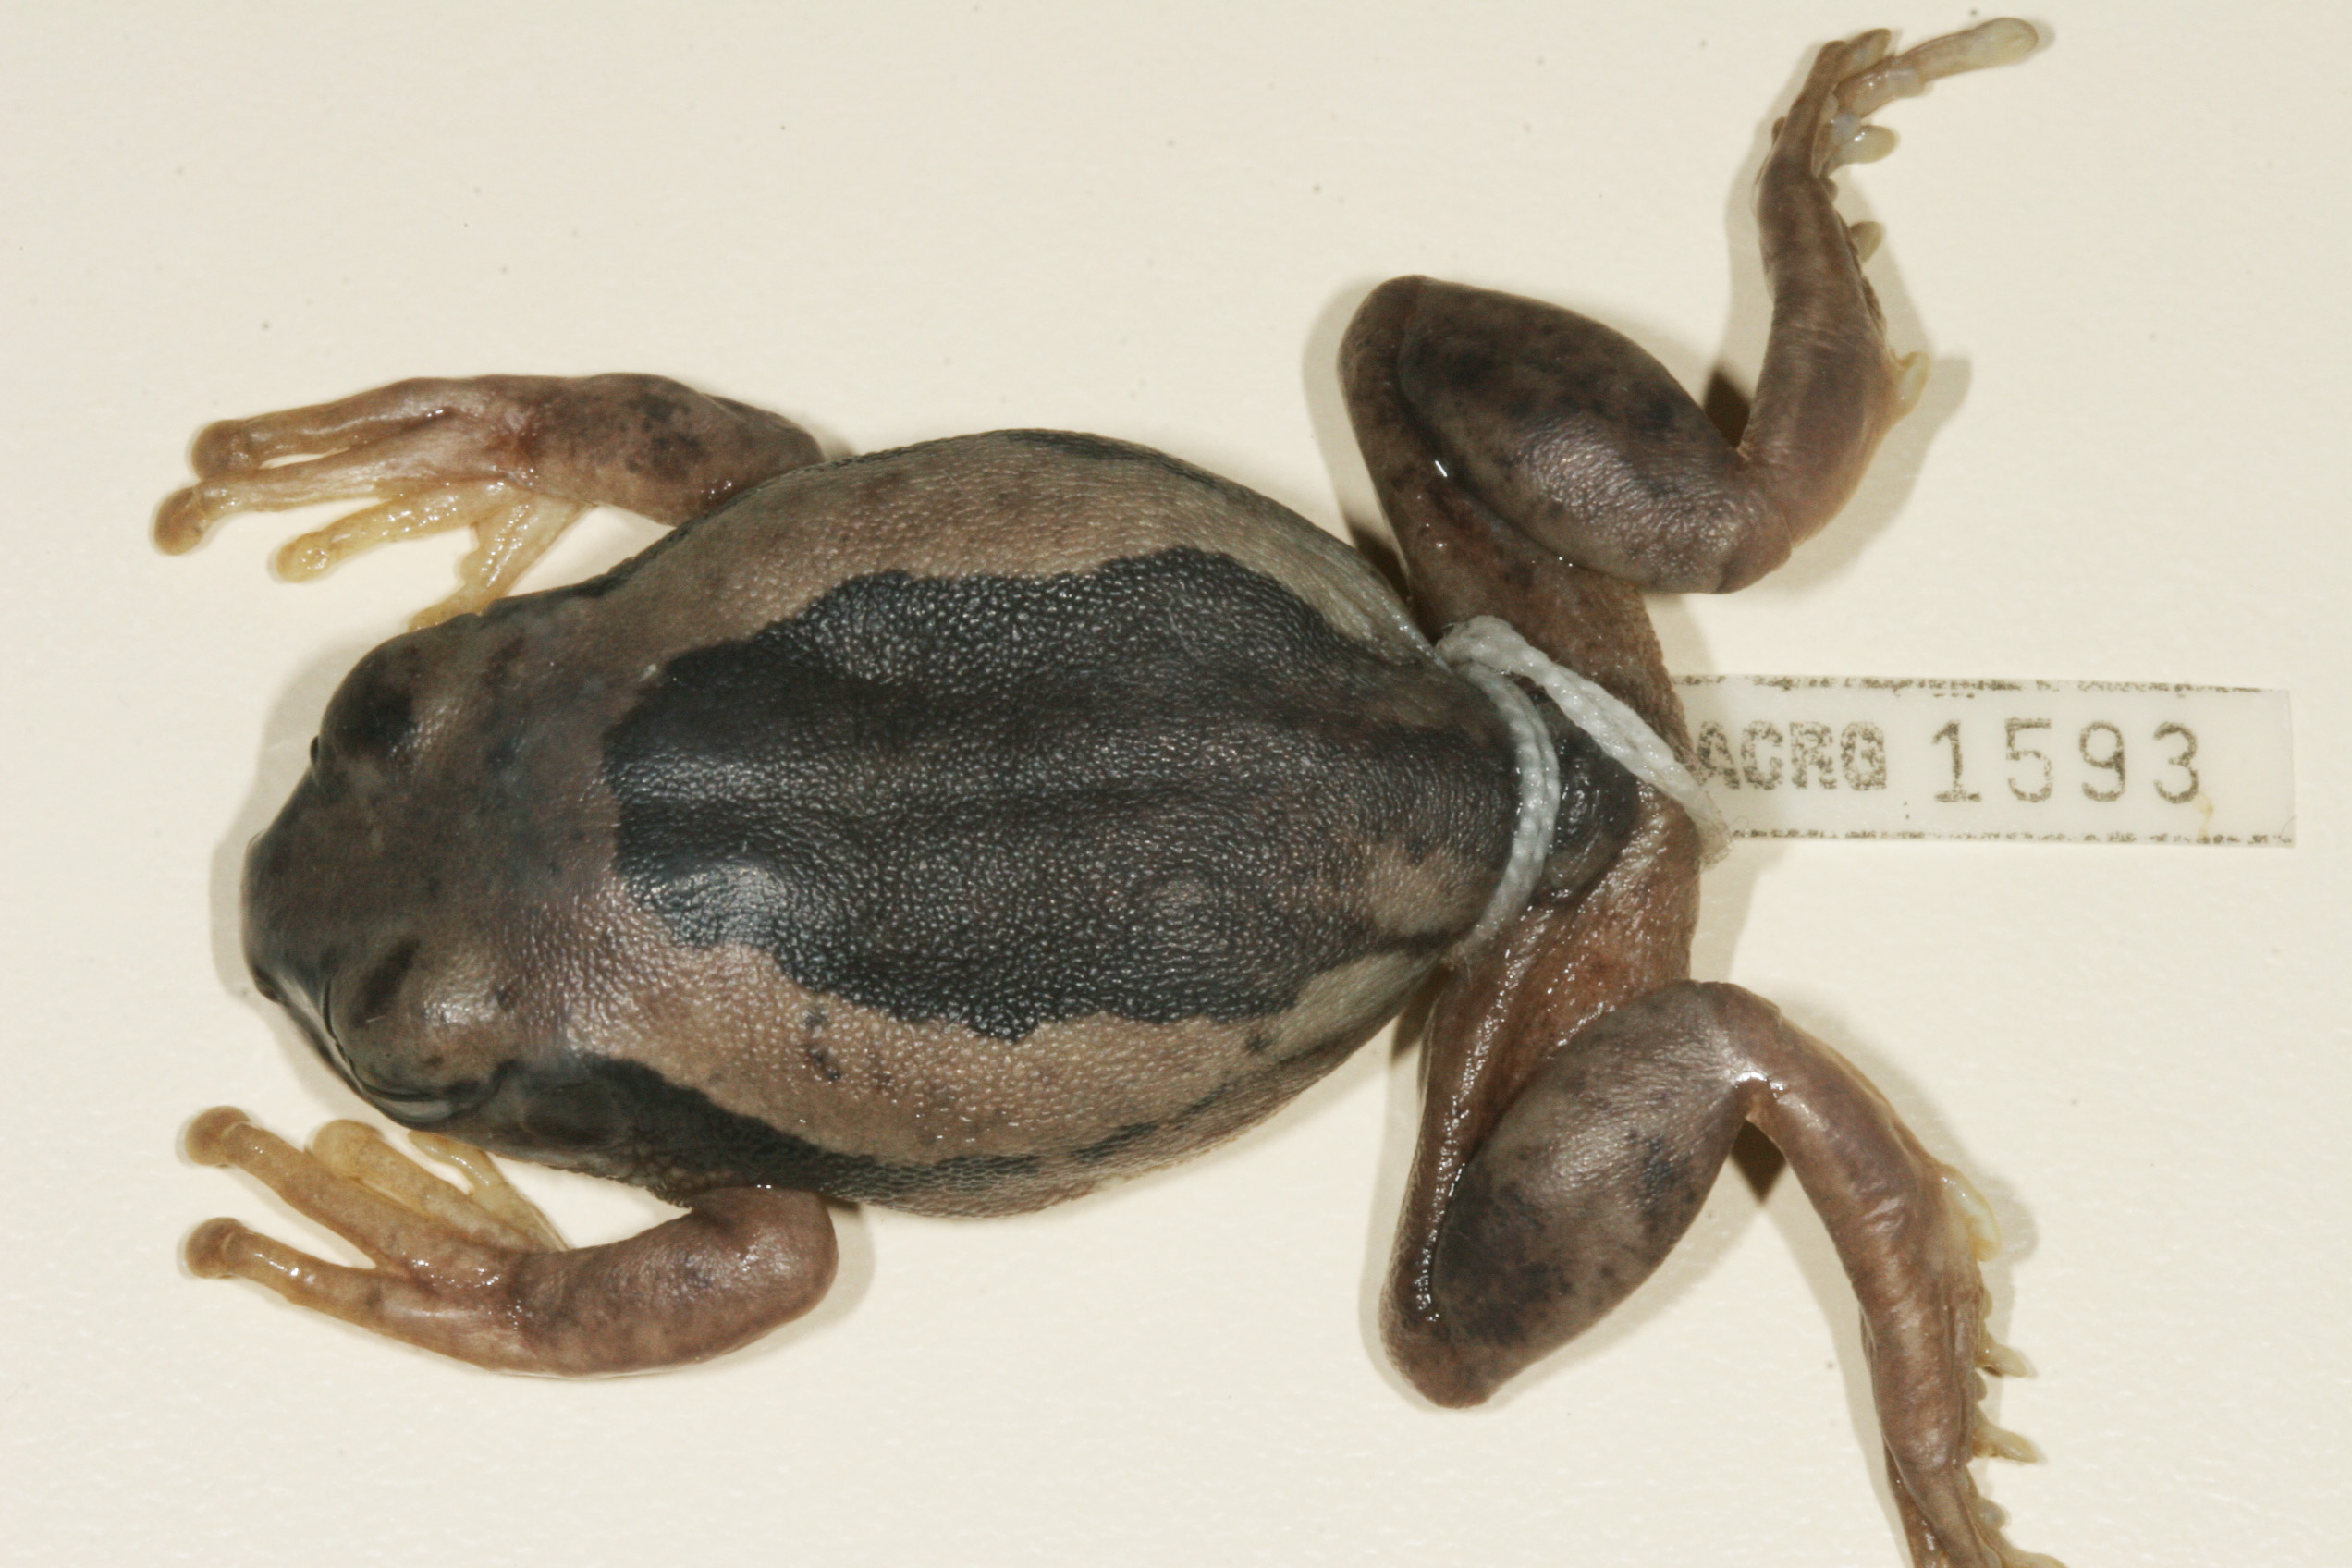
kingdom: Animalia
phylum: Chordata
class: Amphibia
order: Anura
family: Arthroleptidae
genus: Leptopelis
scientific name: Leptopelis mossambicus
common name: Mozambique tree frog
